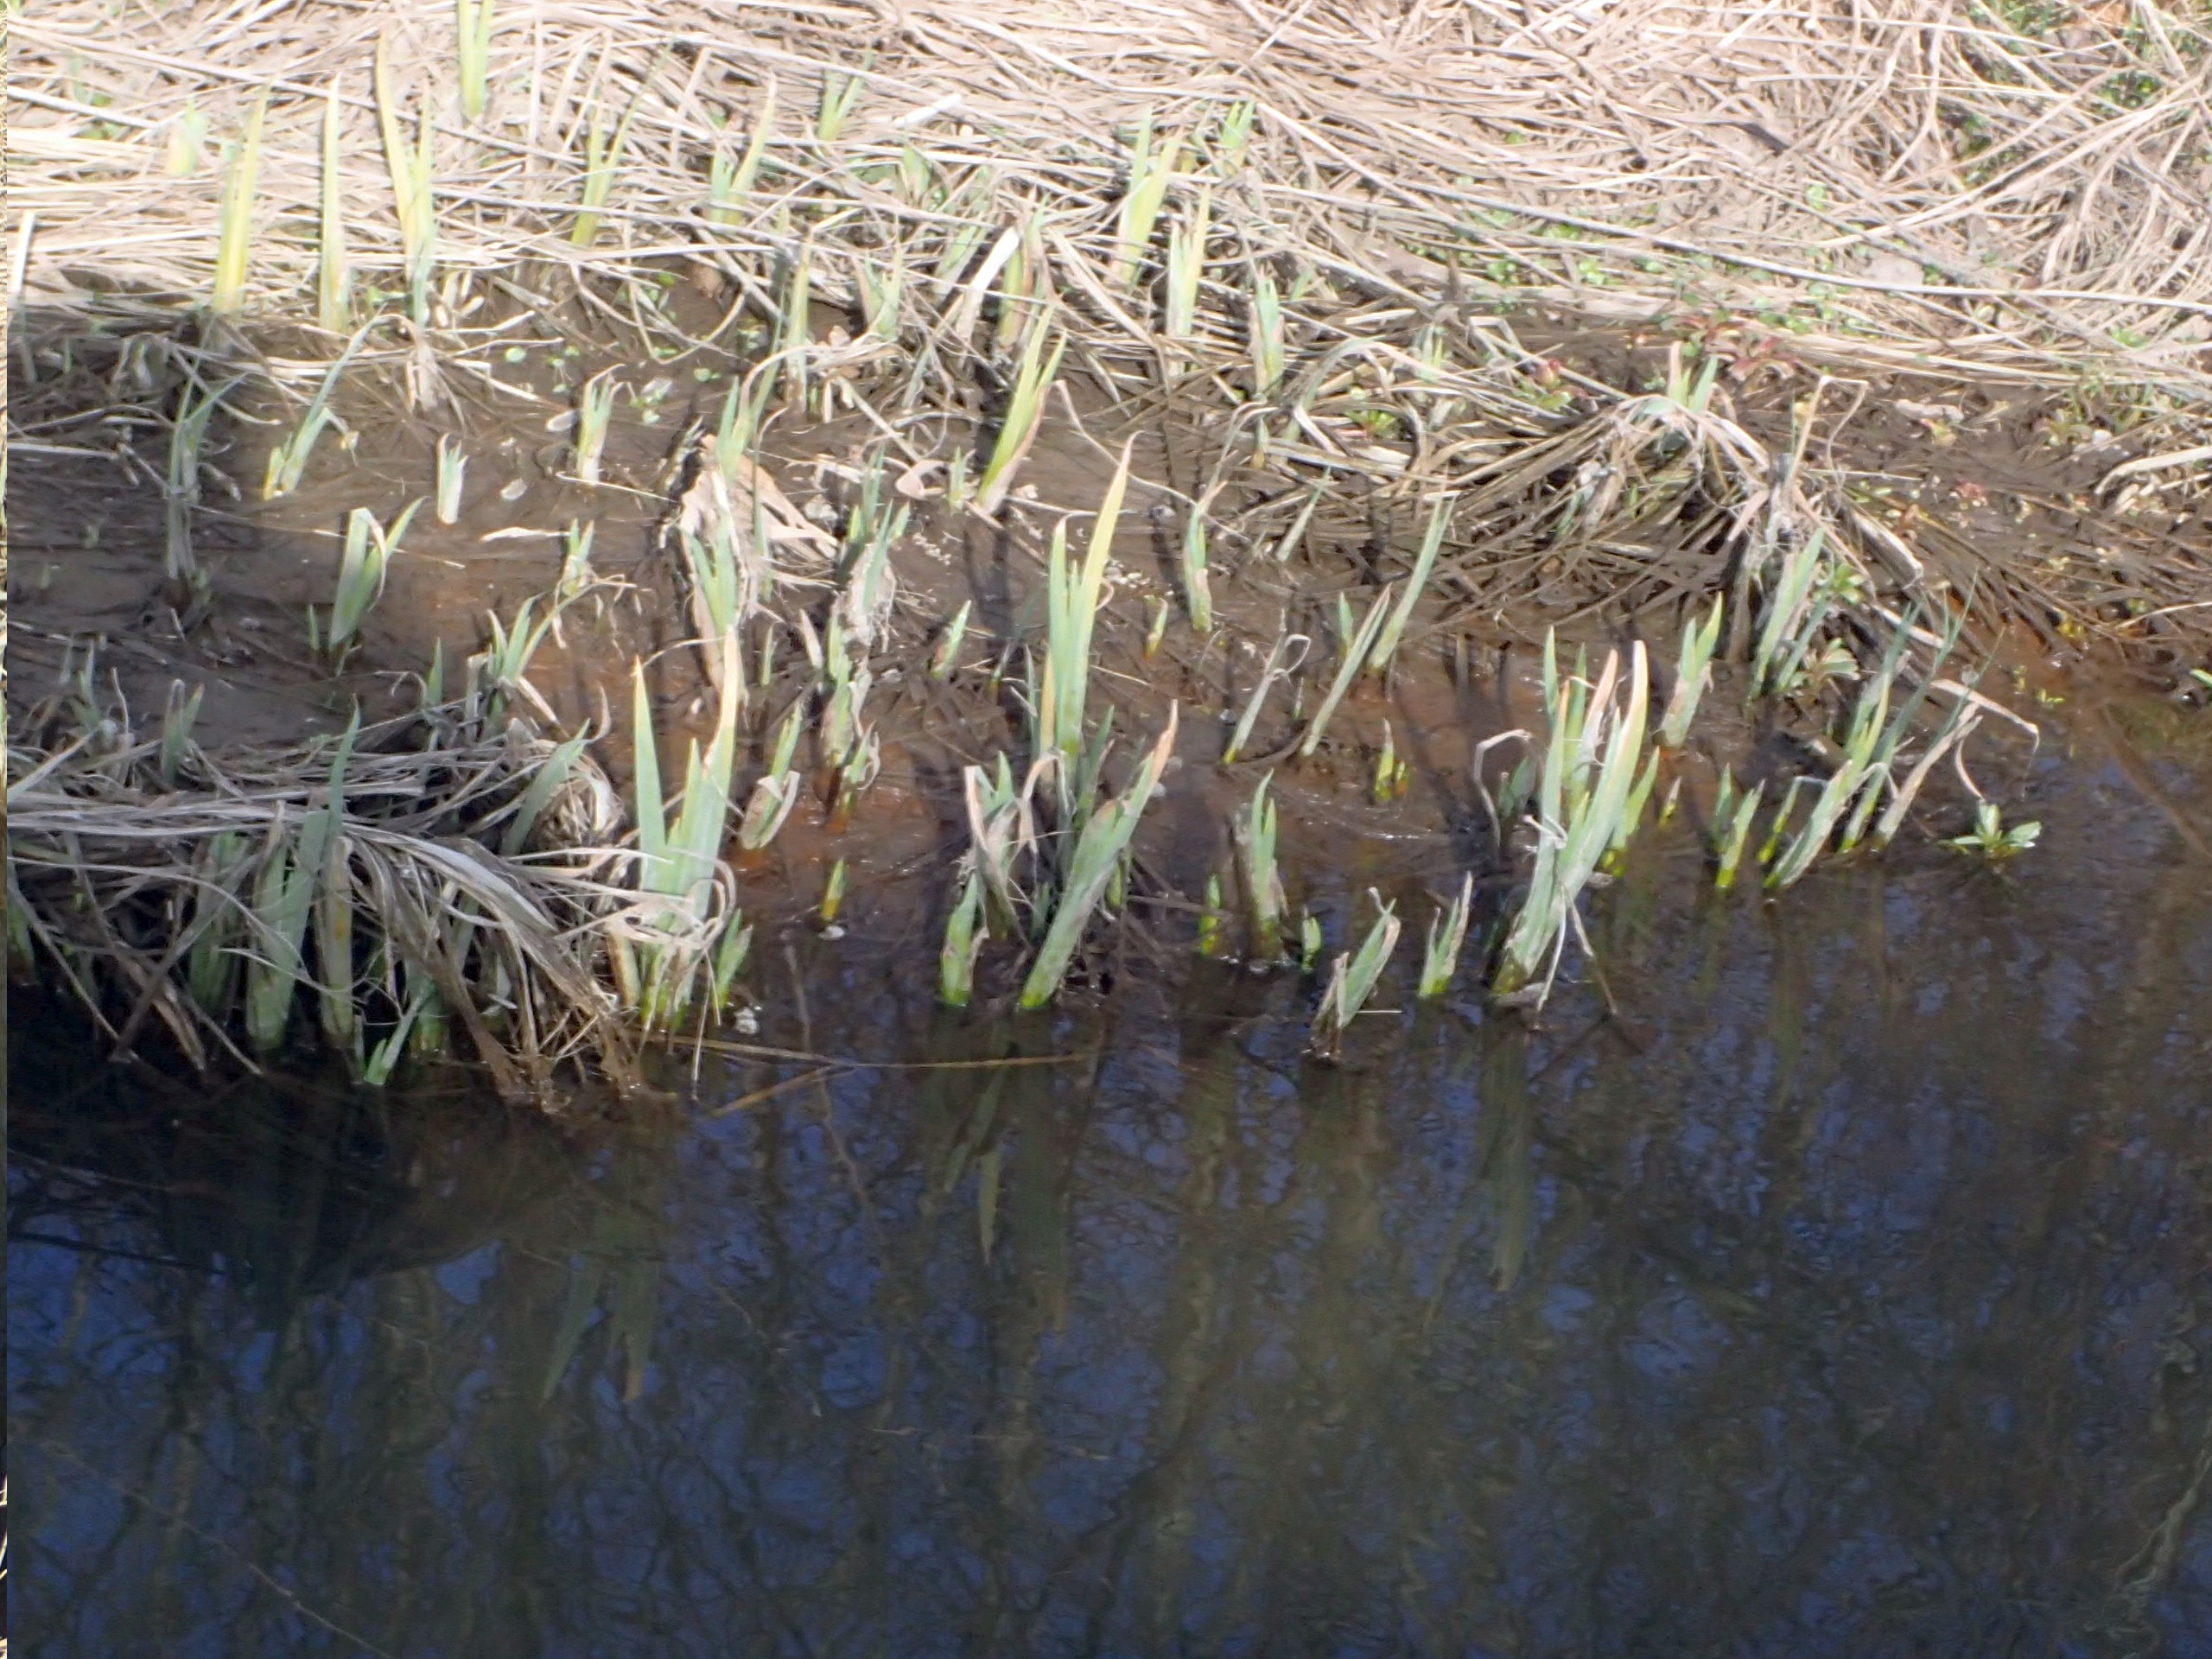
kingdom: Plantae
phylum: Tracheophyta
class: Liliopsida
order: Asparagales
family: Iridaceae
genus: Iris
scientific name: Iris pseudacorus
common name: Gul iris
